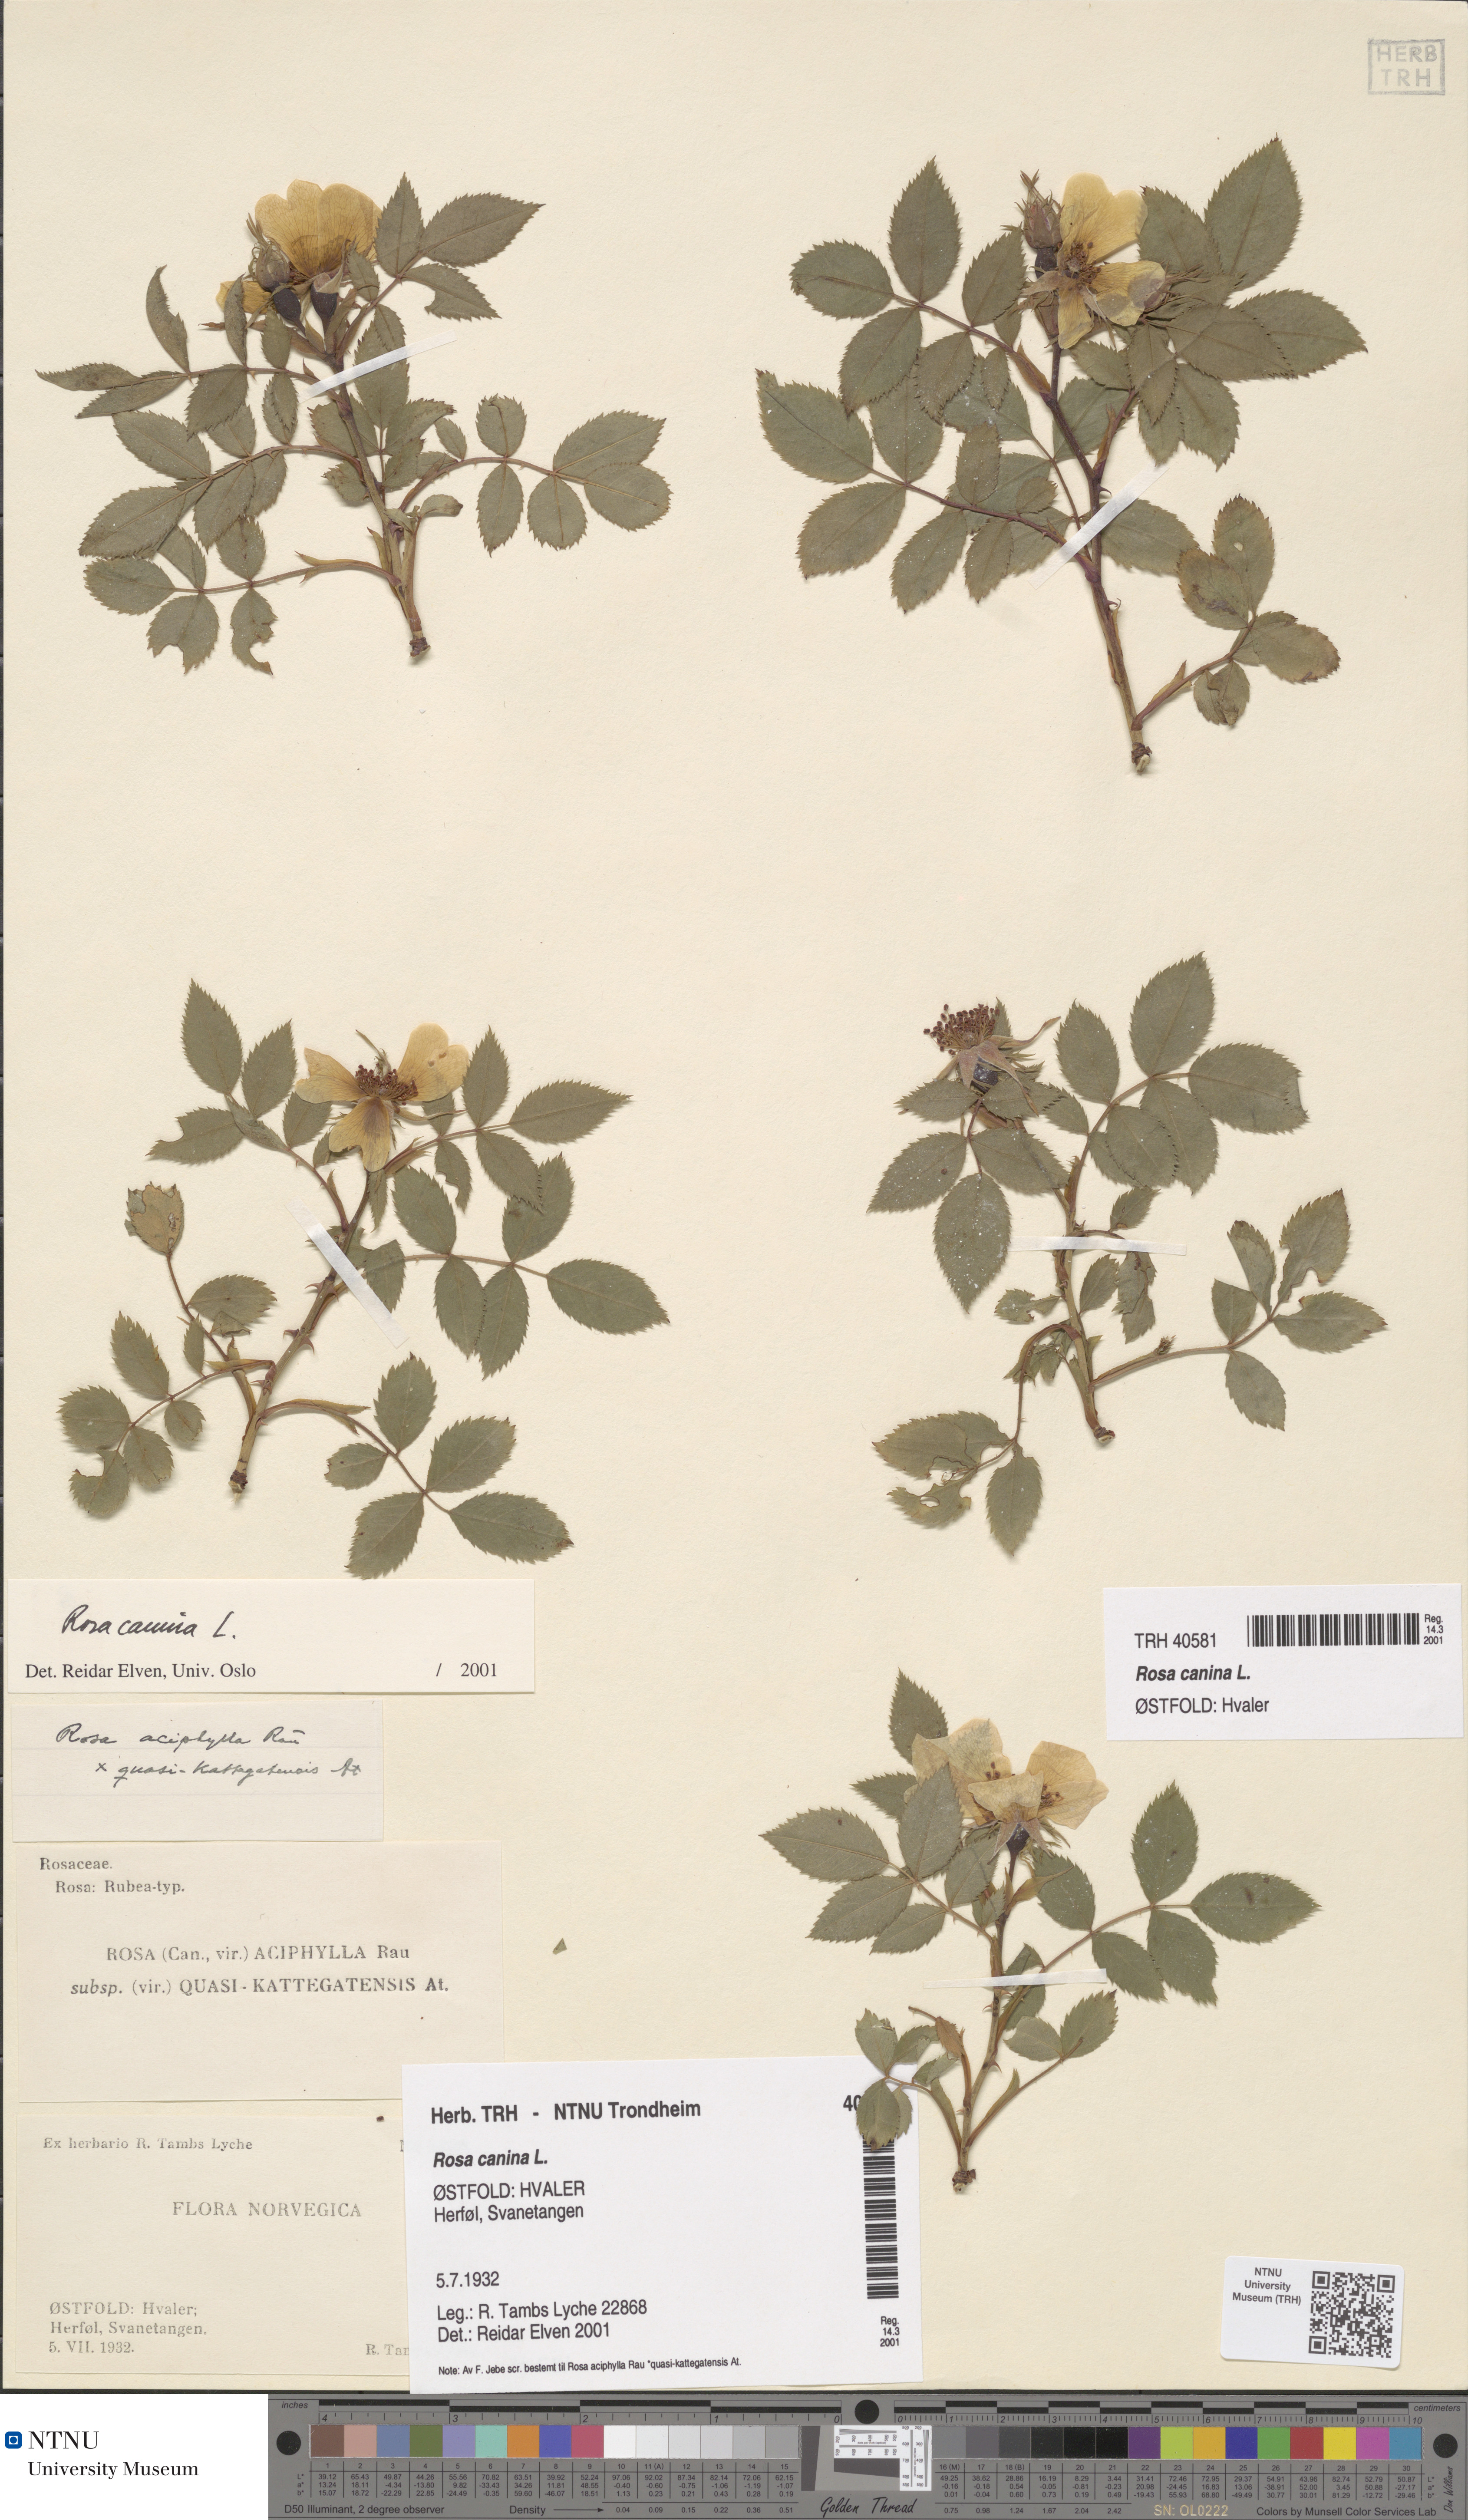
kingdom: Plantae
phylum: Tracheophyta
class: Magnoliopsida
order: Rosales
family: Rosaceae
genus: Rosa
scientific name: Rosa canina
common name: Dog rose
